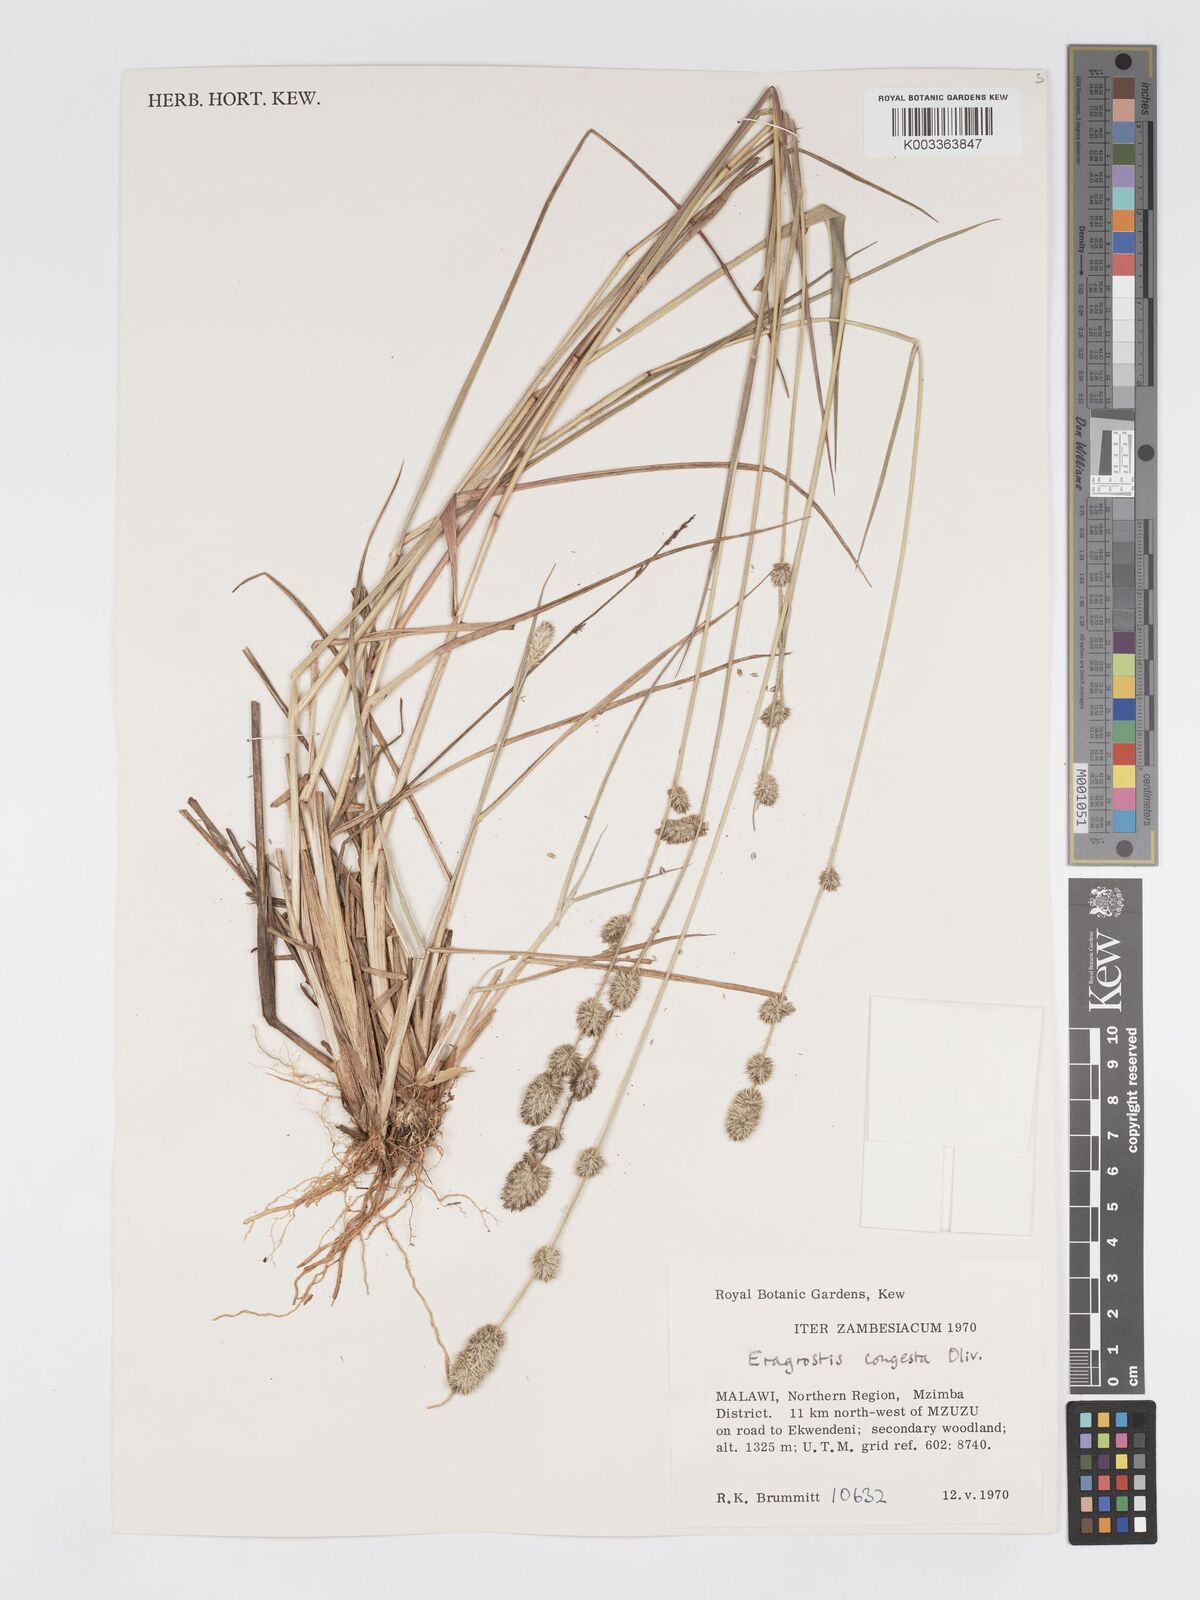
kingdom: Plantae
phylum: Tracheophyta
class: Liliopsida
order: Poales
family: Poaceae
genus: Eragrostis
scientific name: Eragrostis congesta
